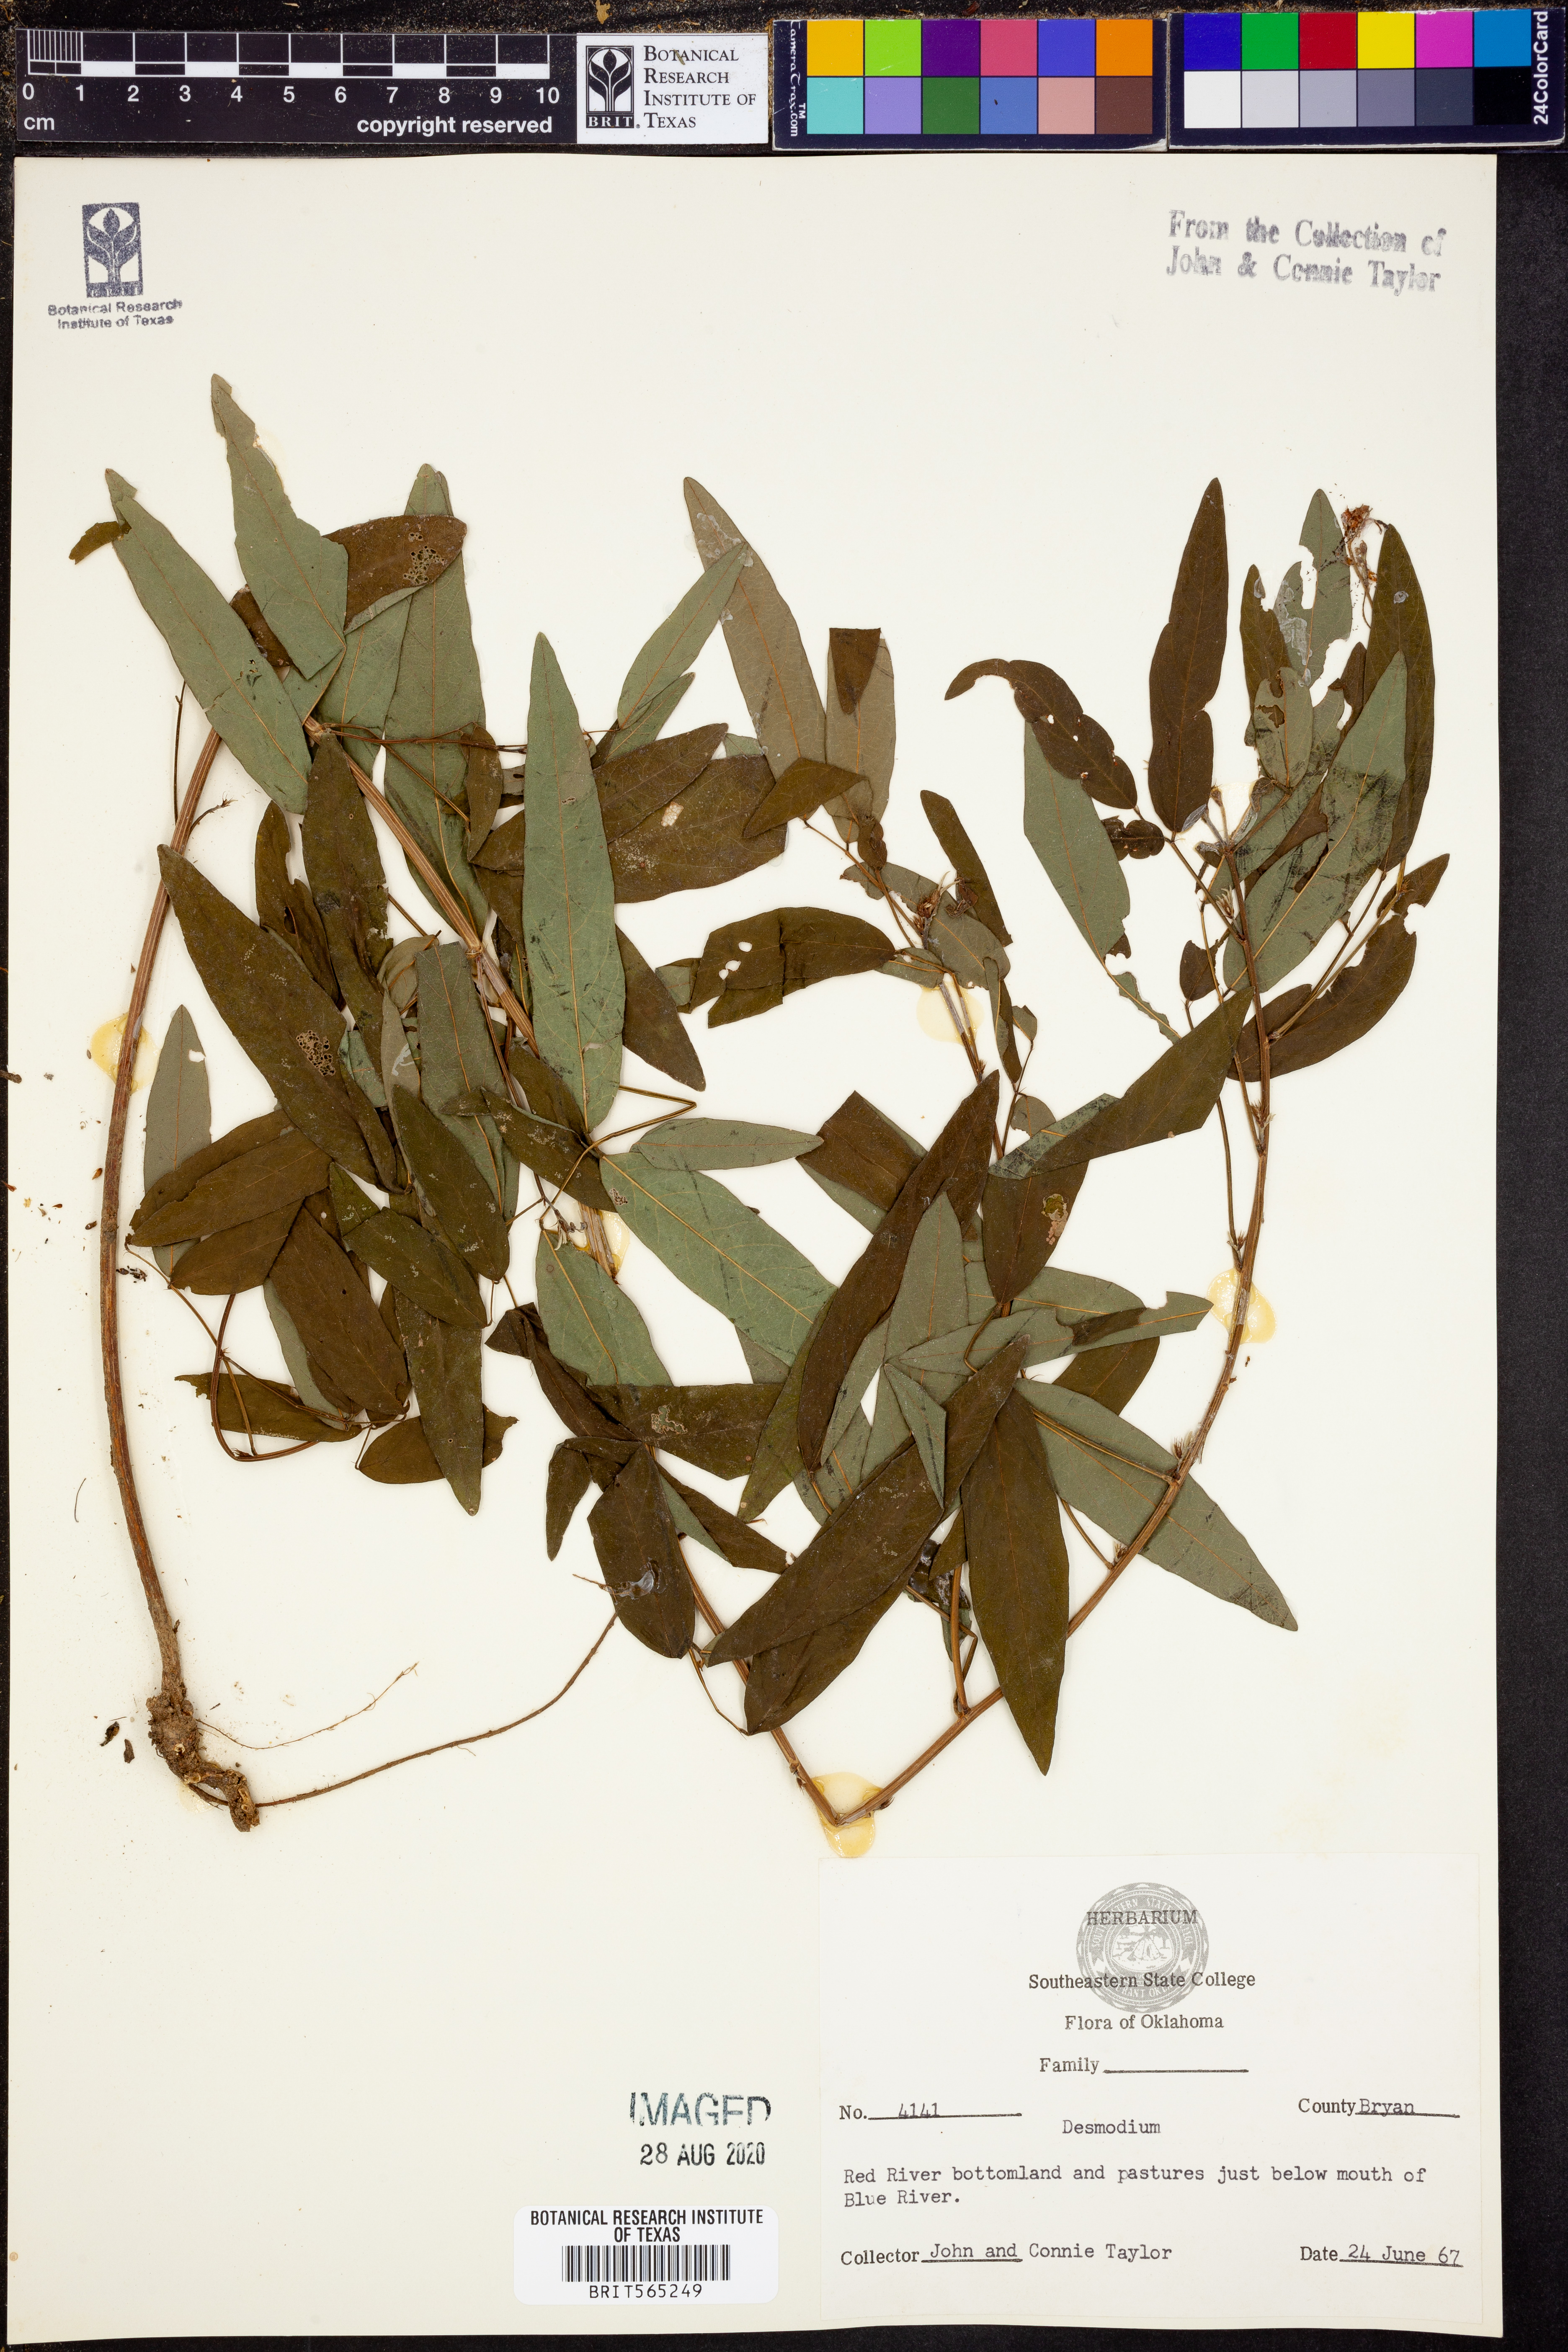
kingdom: Plantae
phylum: Tracheophyta
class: Magnoliopsida
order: Fabales
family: Fabaceae
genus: Desmodium
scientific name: Desmodium
